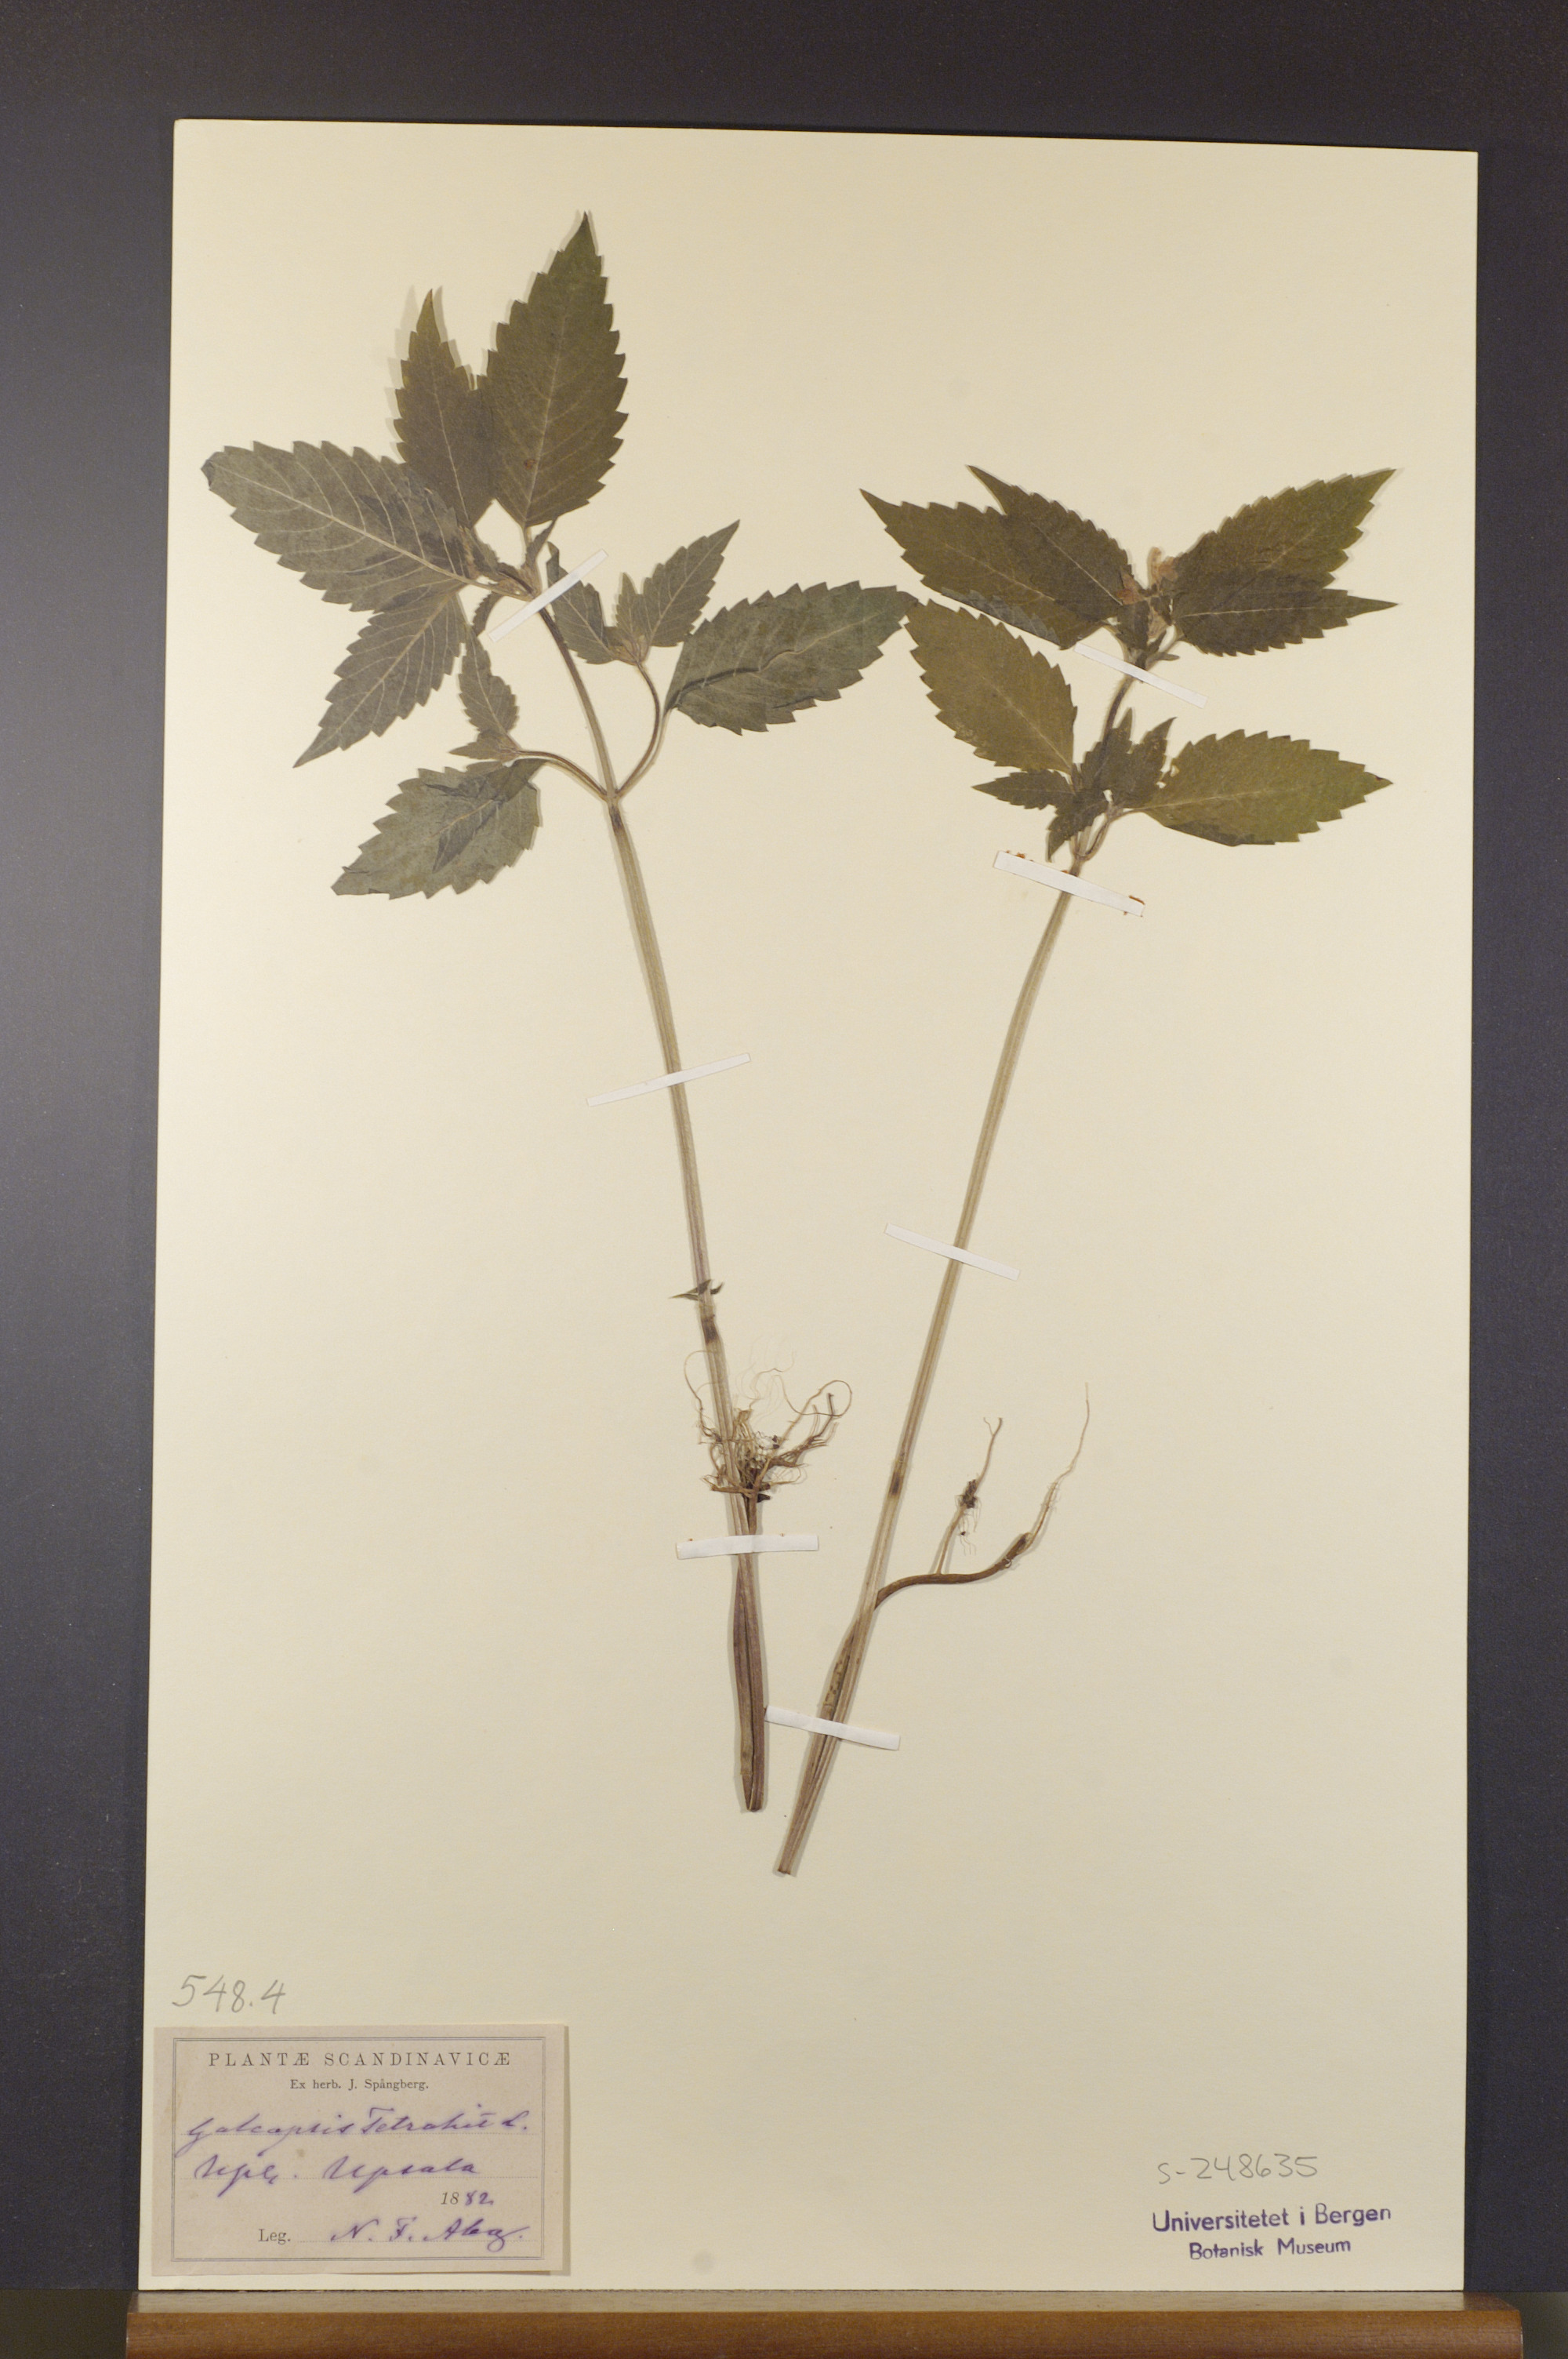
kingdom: Plantae
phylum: Tracheophyta
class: Magnoliopsida
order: Lamiales
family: Lamiaceae
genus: Galeopsis
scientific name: Galeopsis tetrahit
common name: Common hemp-nettle
